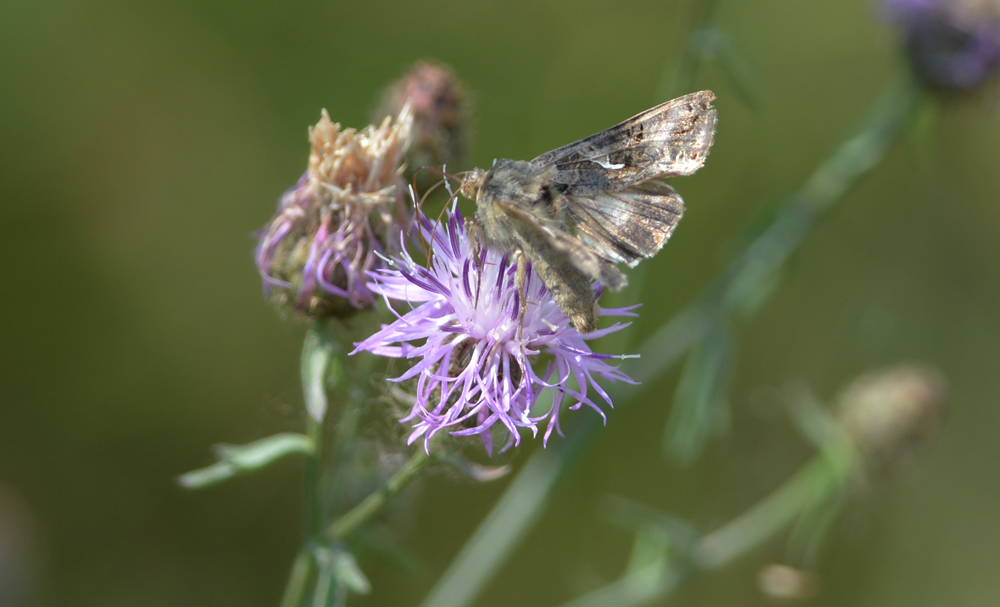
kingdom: Animalia
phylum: Arthropoda
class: Insecta
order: Lepidoptera
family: Noctuidae
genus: Autographa
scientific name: Autographa gamma
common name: Silver y
